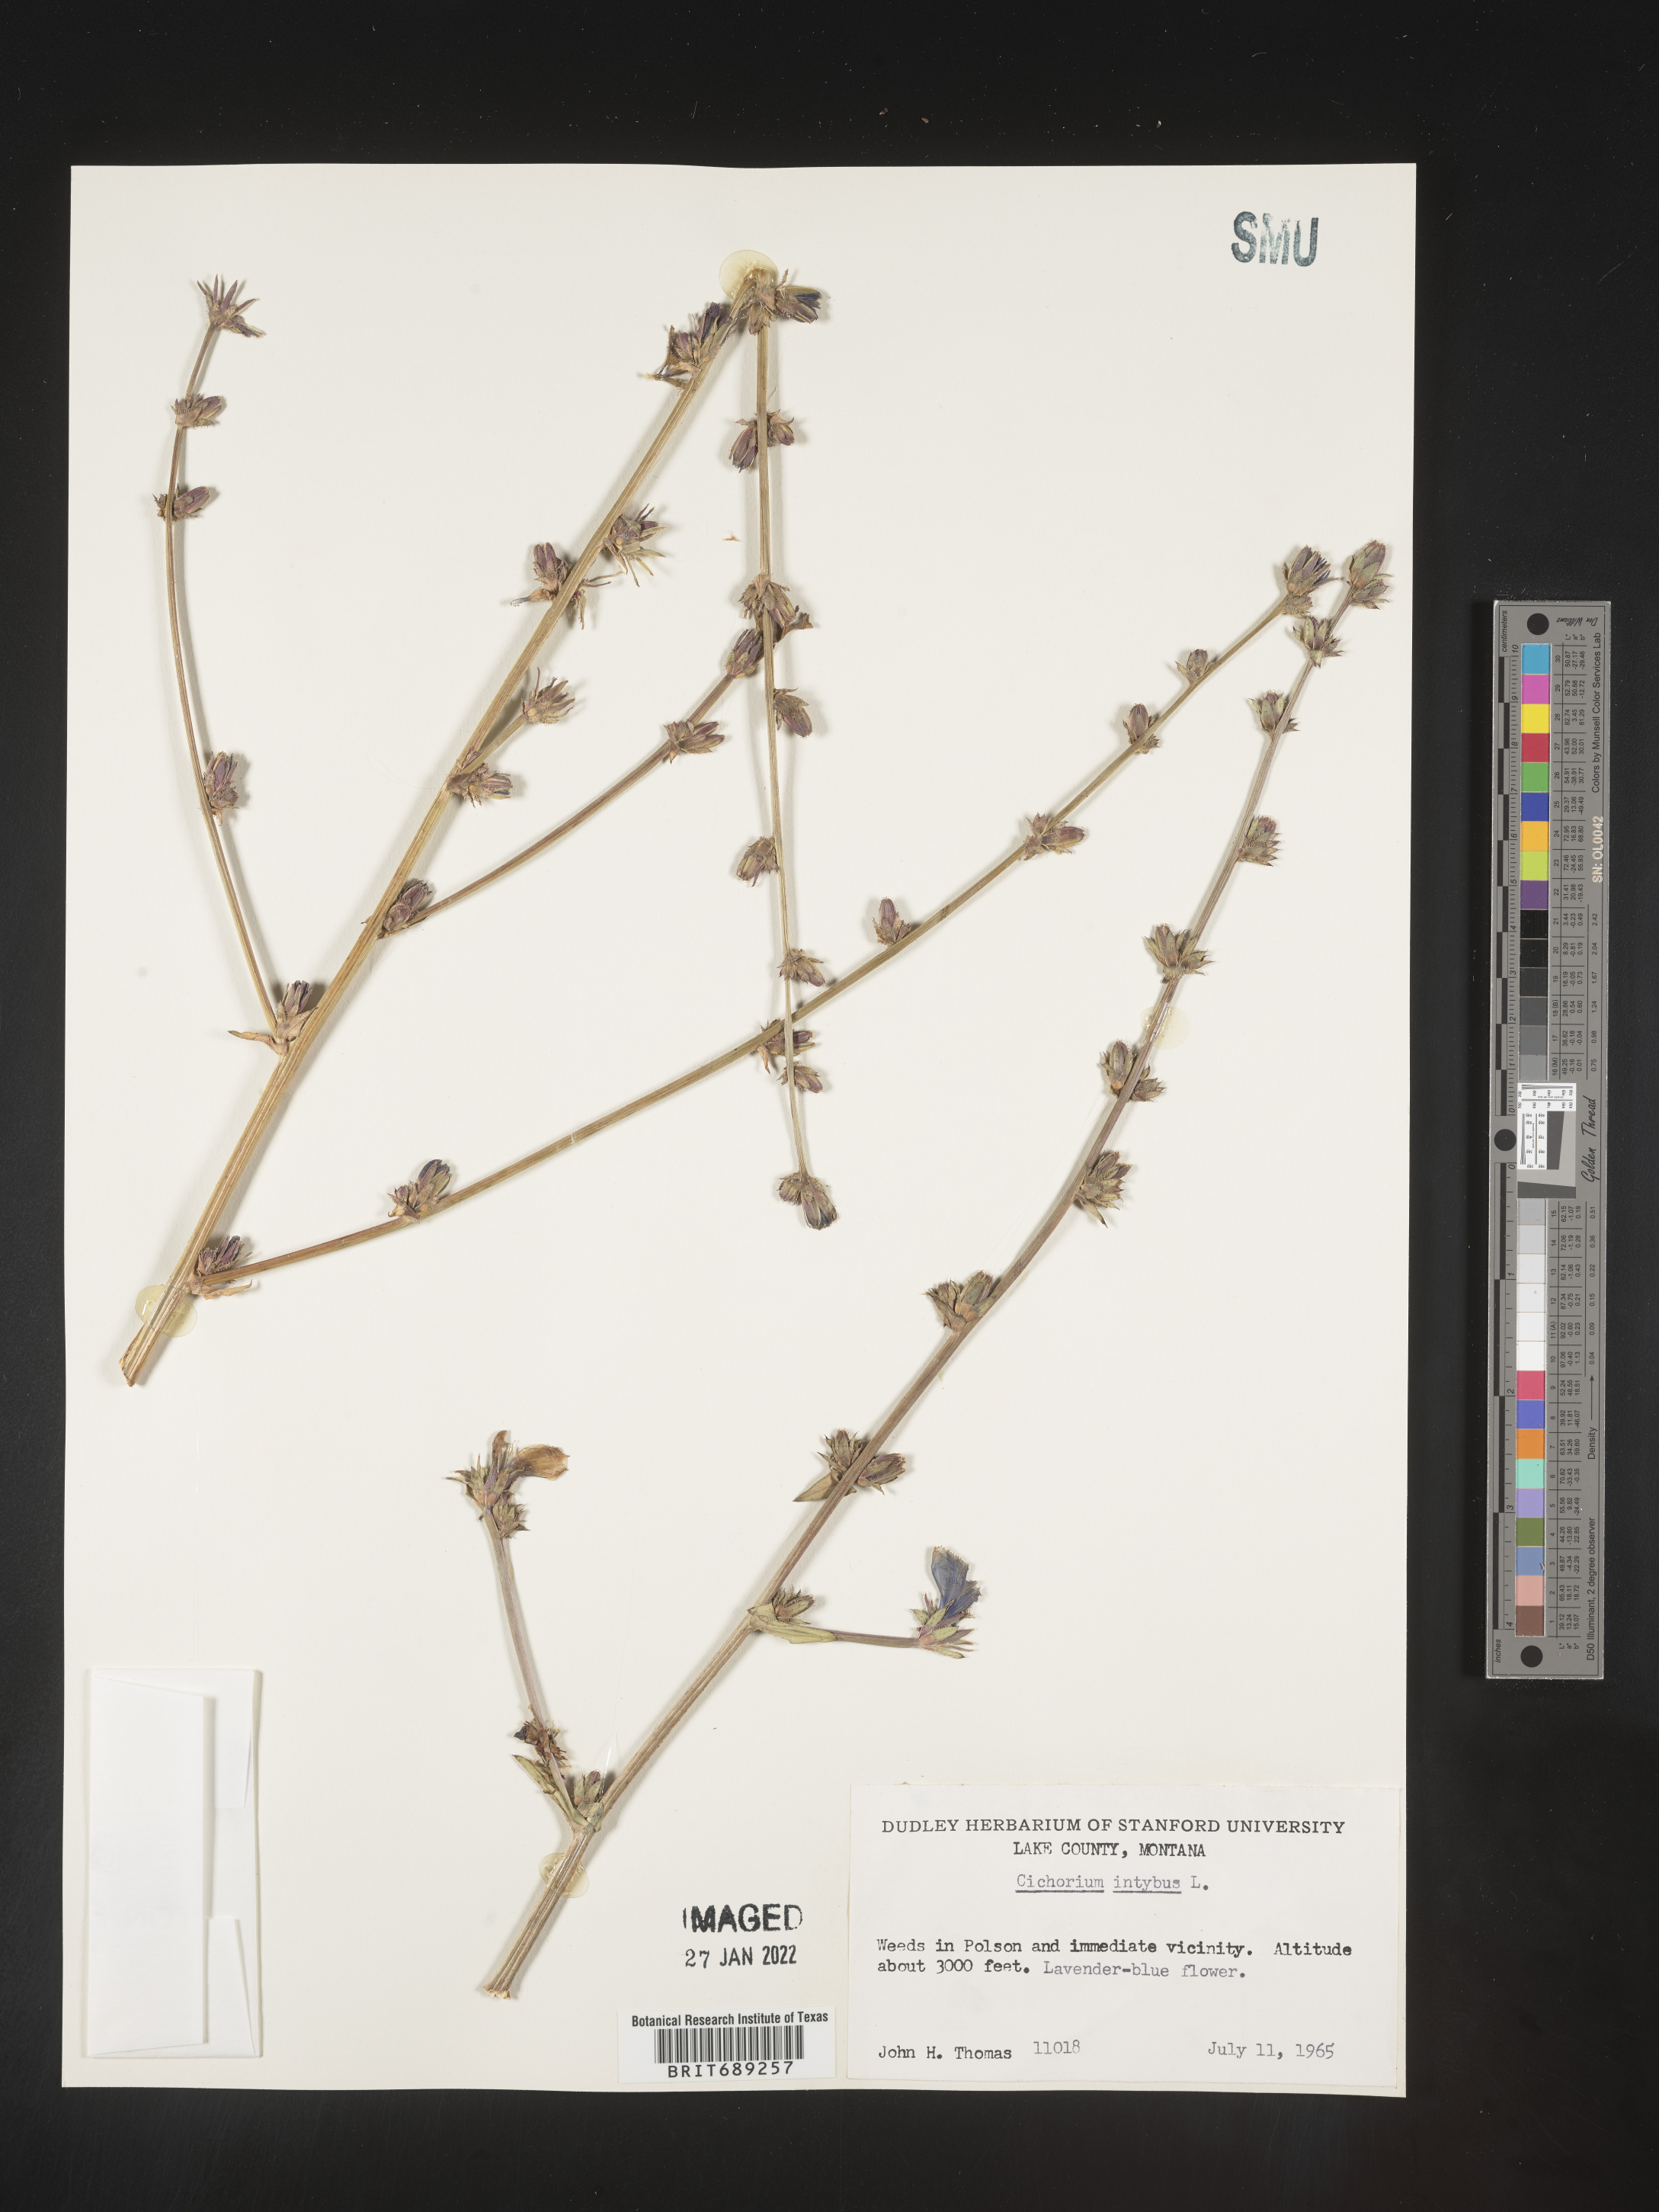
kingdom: Plantae
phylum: Tracheophyta
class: Magnoliopsida
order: Asterales
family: Asteraceae
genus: Cichorium
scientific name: Cichorium intybus
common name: Chicory
